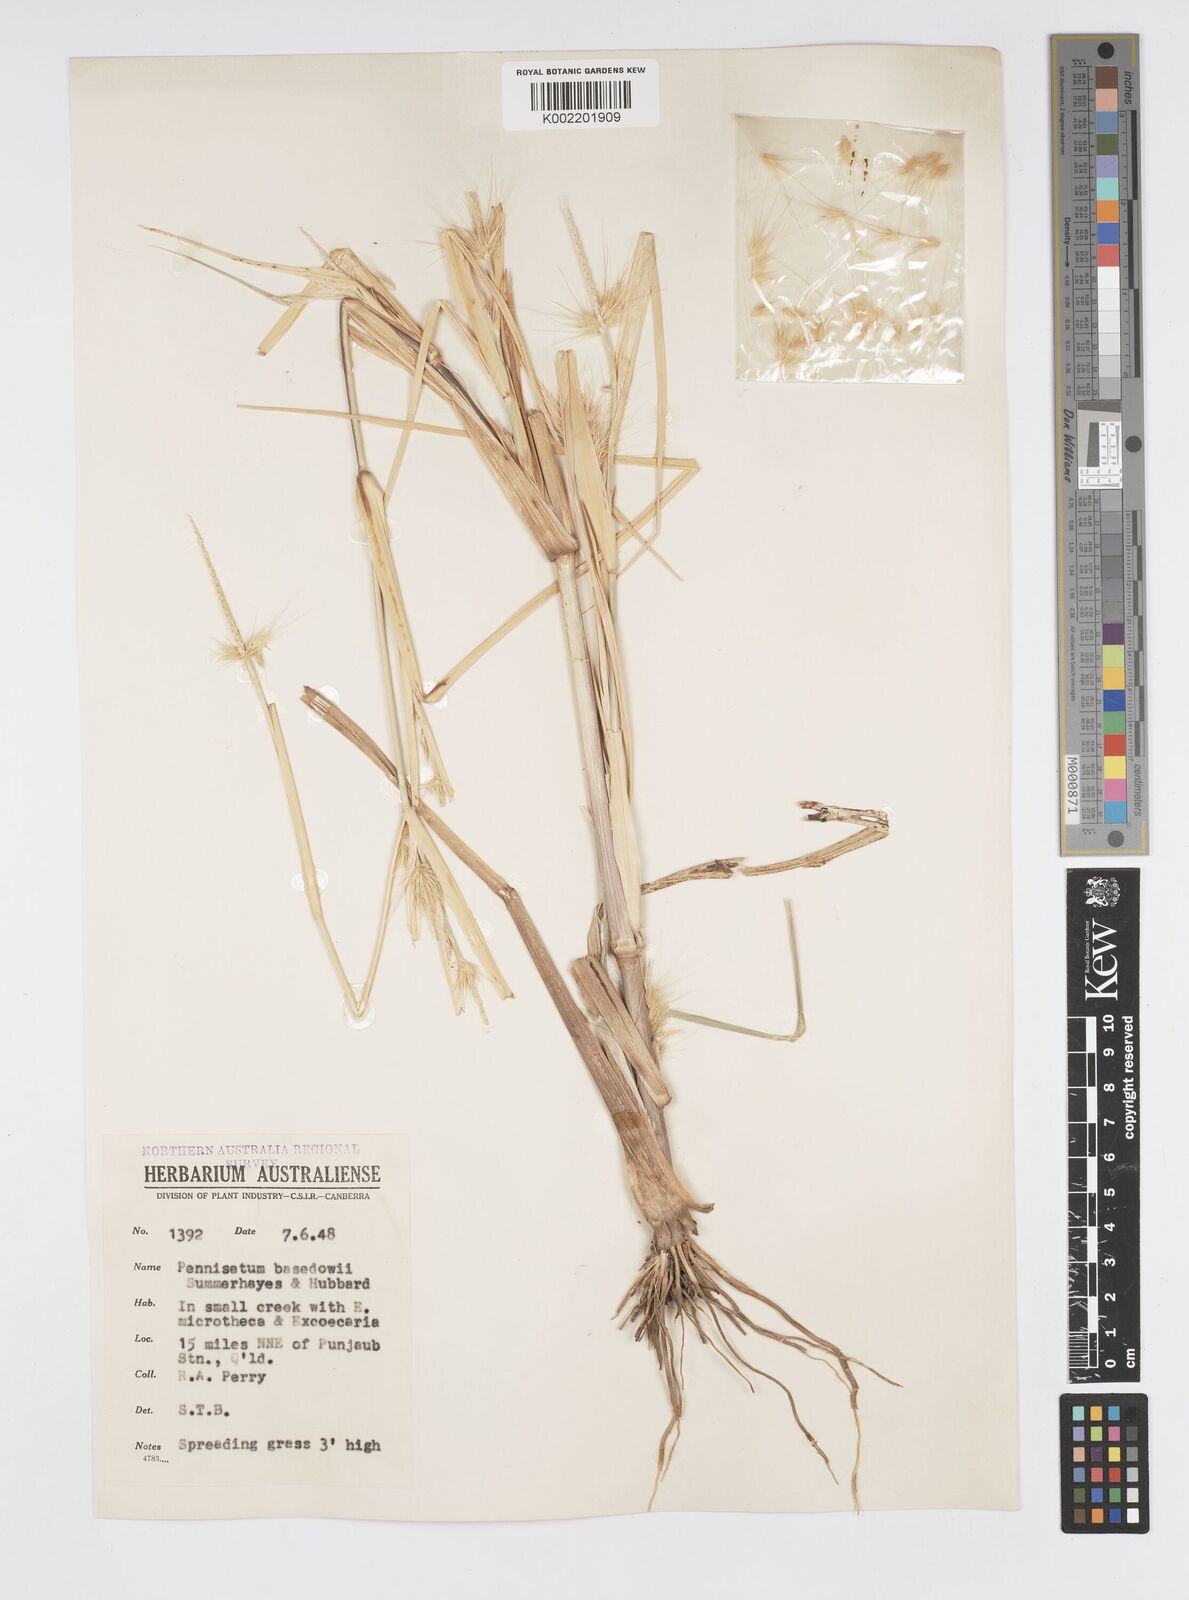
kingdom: Plantae
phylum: Tracheophyta
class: Liliopsida
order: Poales
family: Poaceae
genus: Cenchrus
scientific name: Cenchrus basedowii
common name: Asbestos grass
